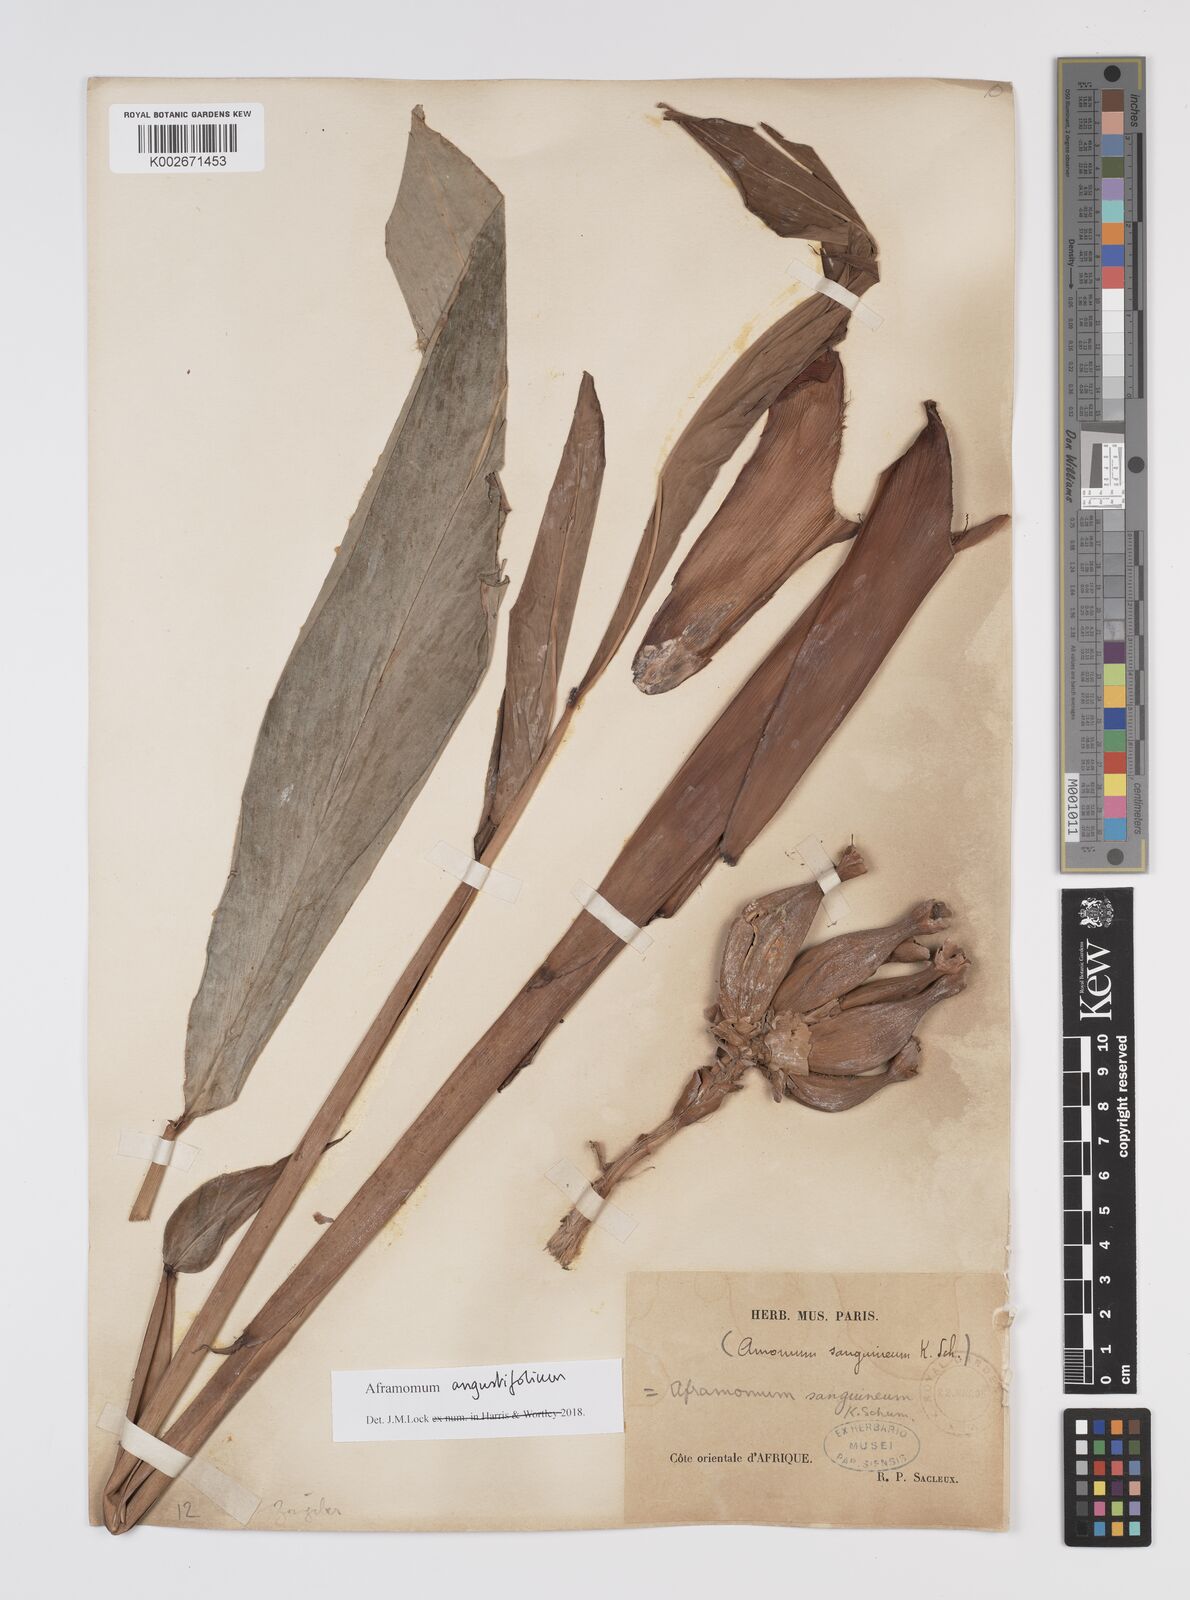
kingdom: Plantae
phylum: Tracheophyta
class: Liliopsida
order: Zingiberales
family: Zingiberaceae
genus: Aframomum
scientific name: Aframomum angustifolium
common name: Guinea grains
